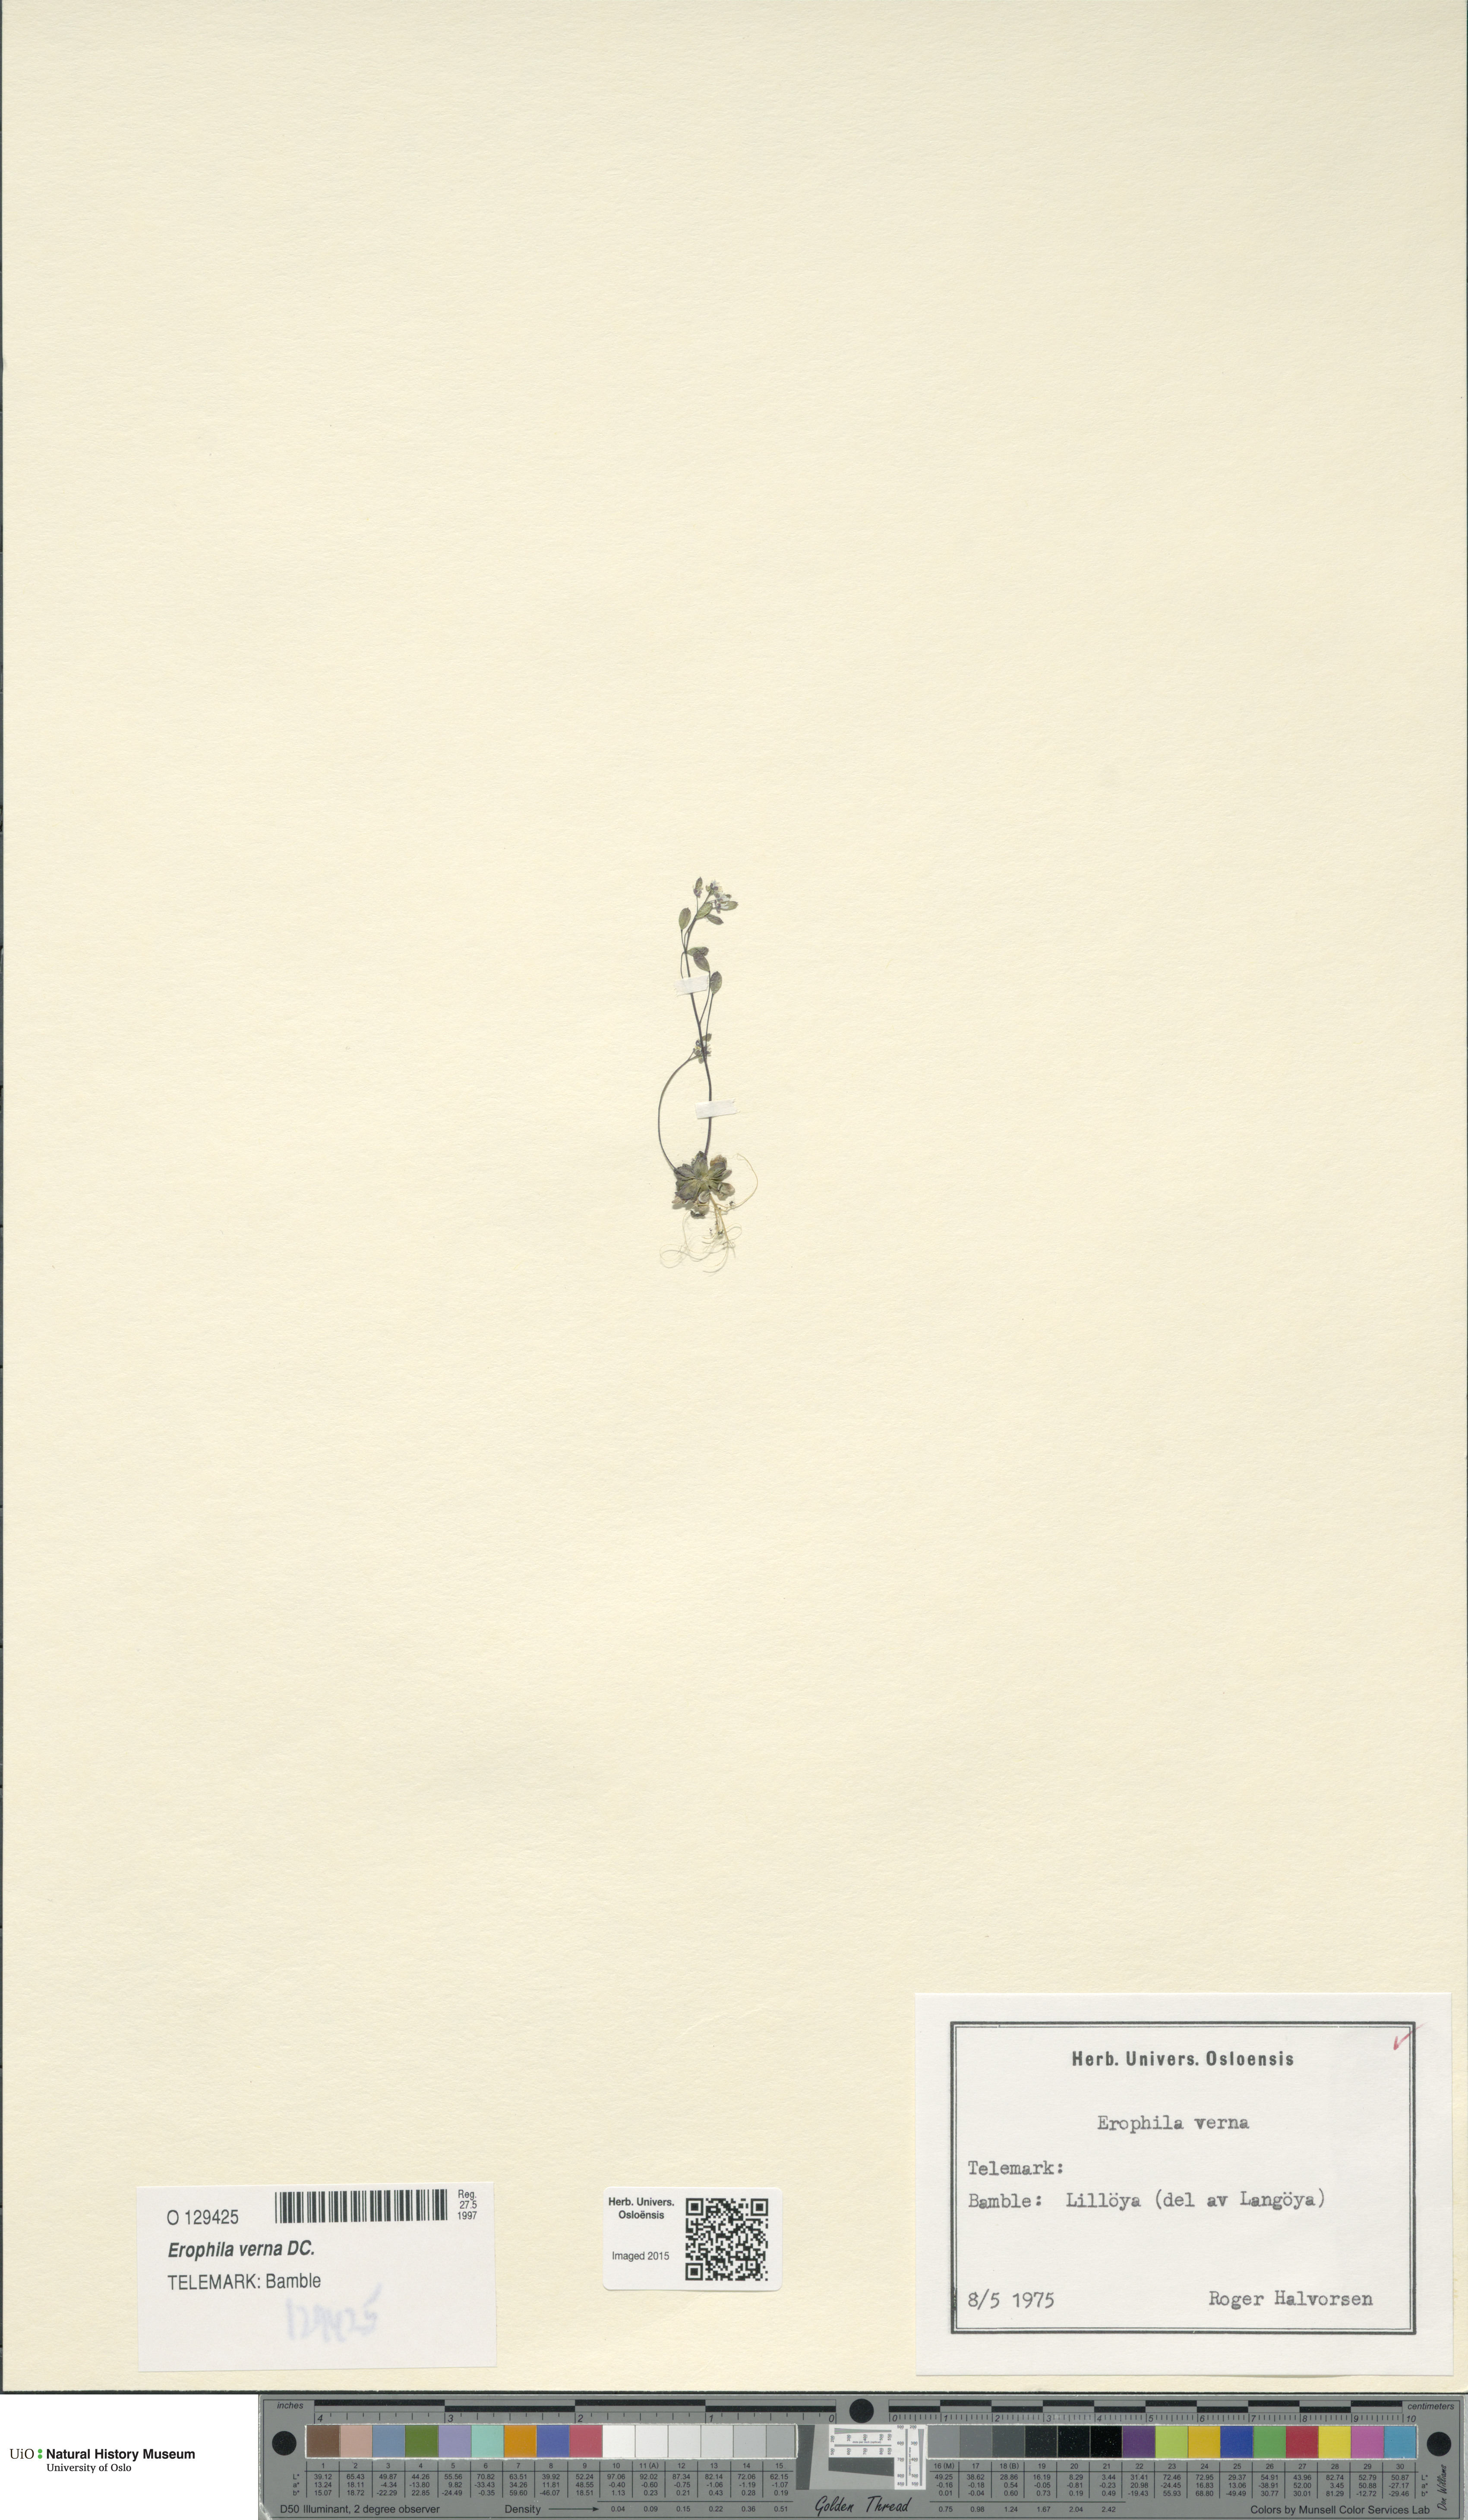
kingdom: Plantae
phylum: Tracheophyta
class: Magnoliopsida
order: Brassicales
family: Brassicaceae
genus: Draba
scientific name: Draba verna
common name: Spring draba
